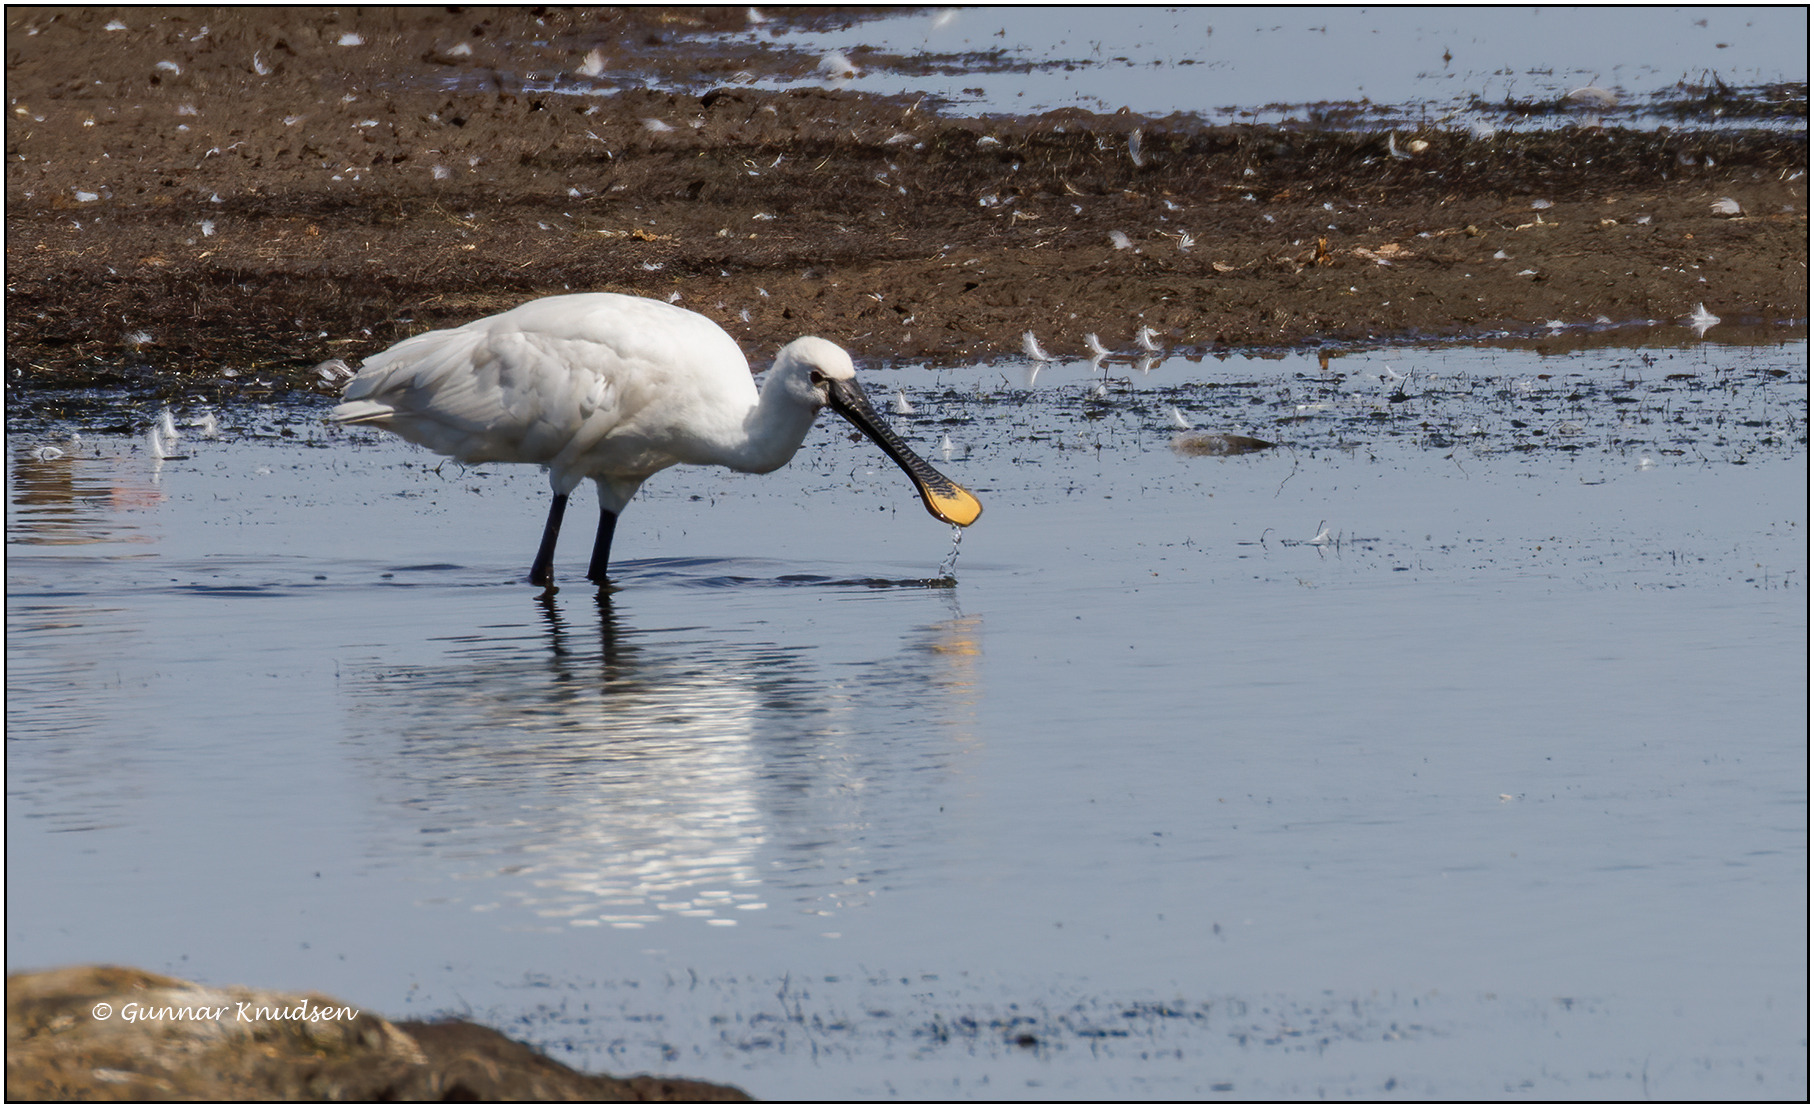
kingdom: Animalia
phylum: Chordata
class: Aves
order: Pelecaniformes
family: Threskiornithidae
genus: Platalea
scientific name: Platalea leucorodia
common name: Skestork
